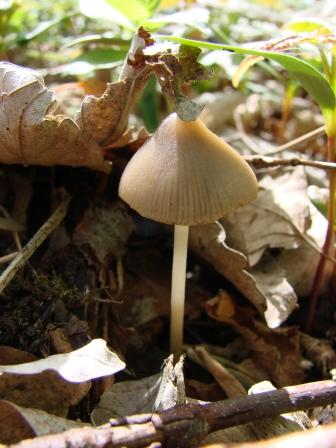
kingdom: Fungi
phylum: Basidiomycota
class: Agaricomycetes
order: Agaricales
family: Psathyrellaceae
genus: Coprinopsis
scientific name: Coprinopsis marcescibilis
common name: ruderat-blækhat
